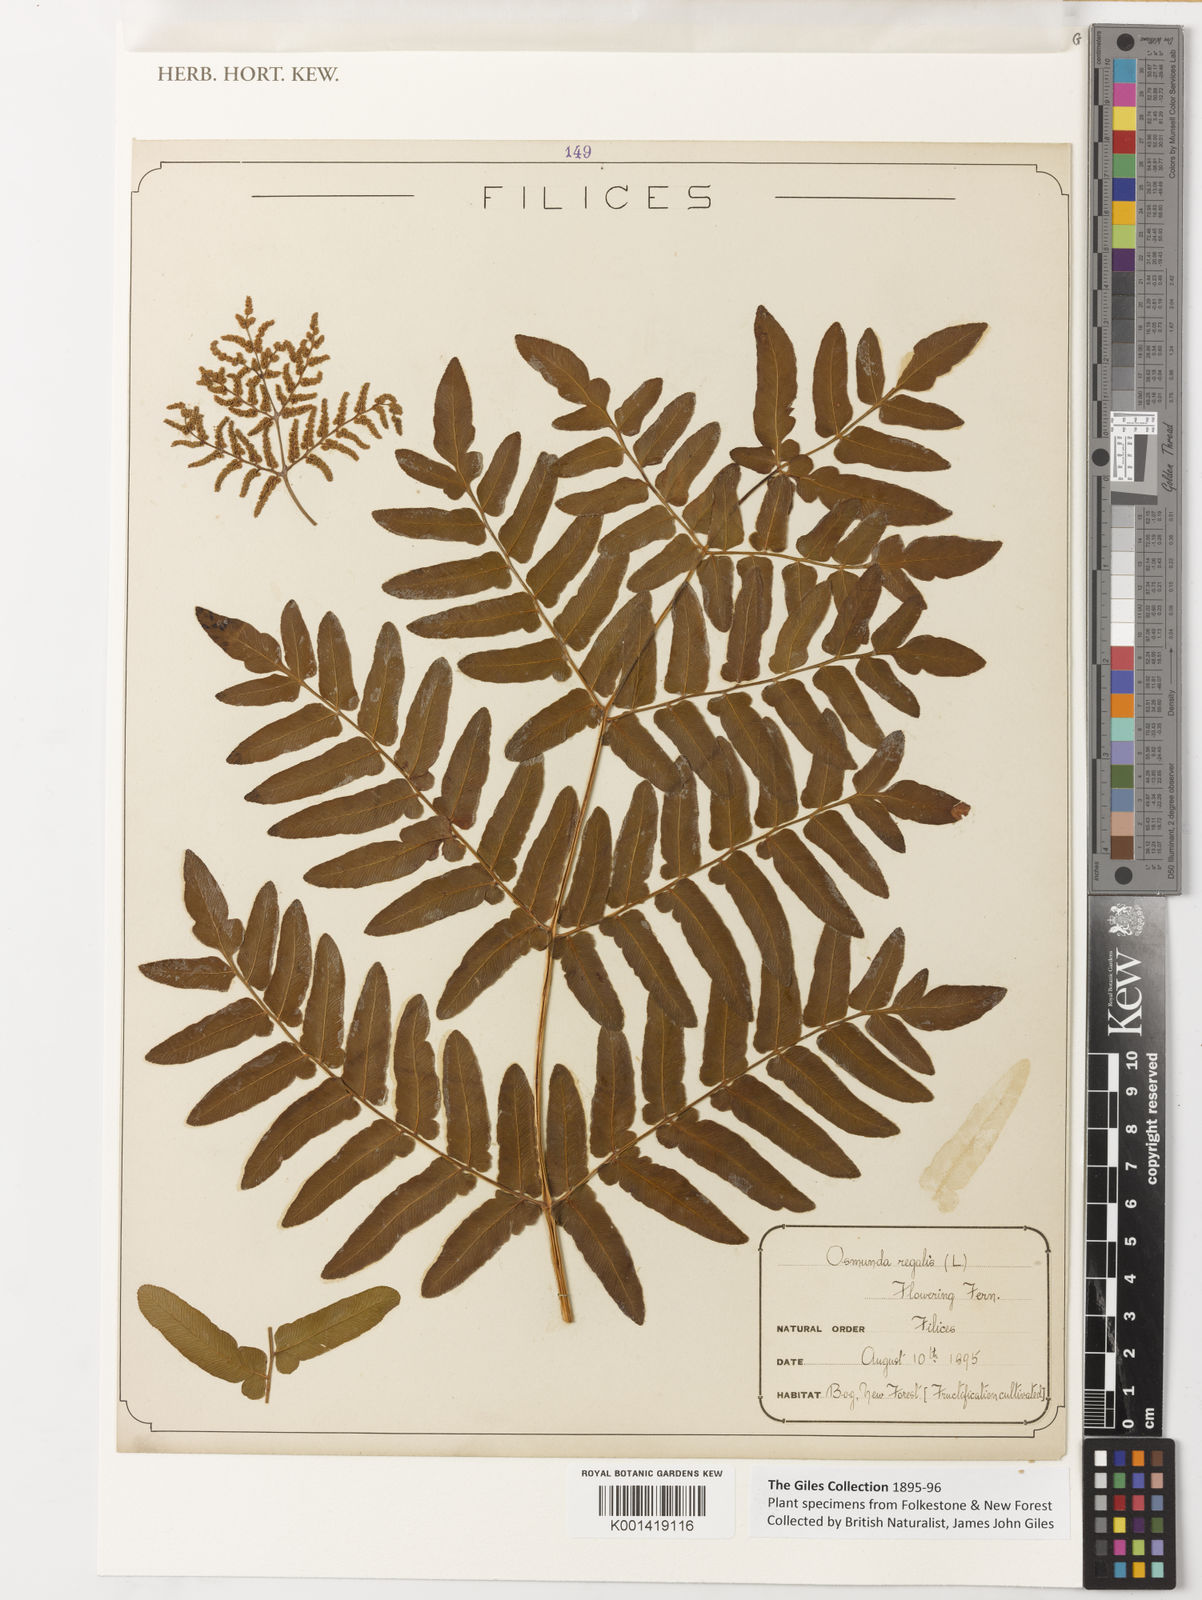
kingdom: Plantae
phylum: Tracheophyta
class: Polypodiopsida
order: Osmundales
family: Osmundaceae
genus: Osmunda
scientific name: Osmunda regalis
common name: Royal fern
